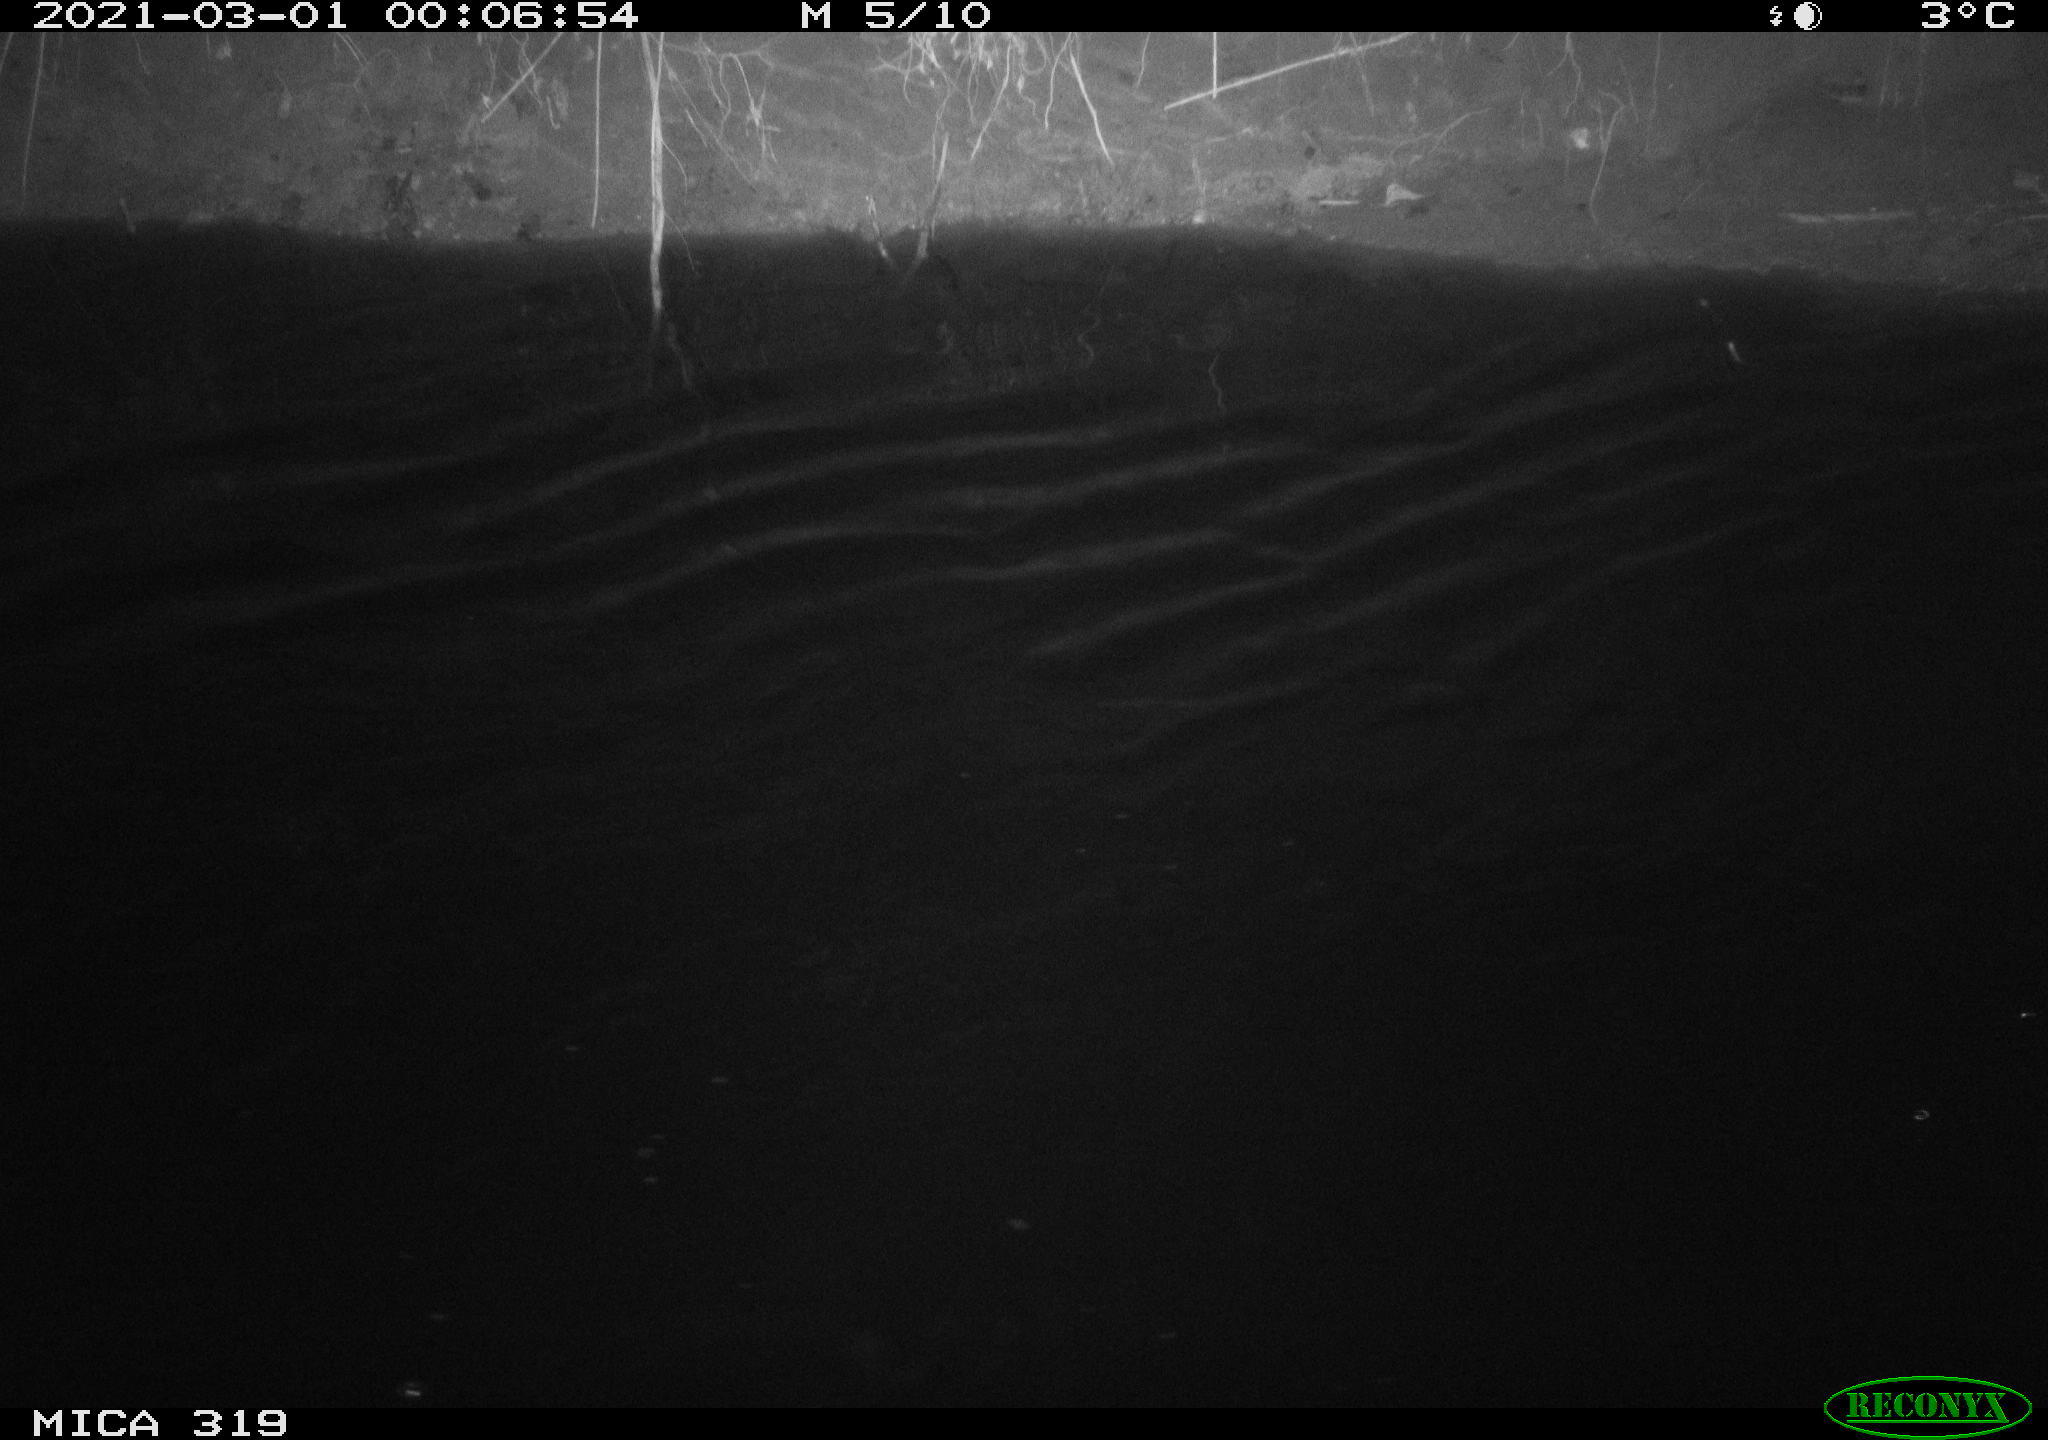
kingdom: Animalia
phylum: Chordata
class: Aves
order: Anseriformes
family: Anatidae
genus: Anas
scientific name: Anas platyrhynchos
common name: Mallard
